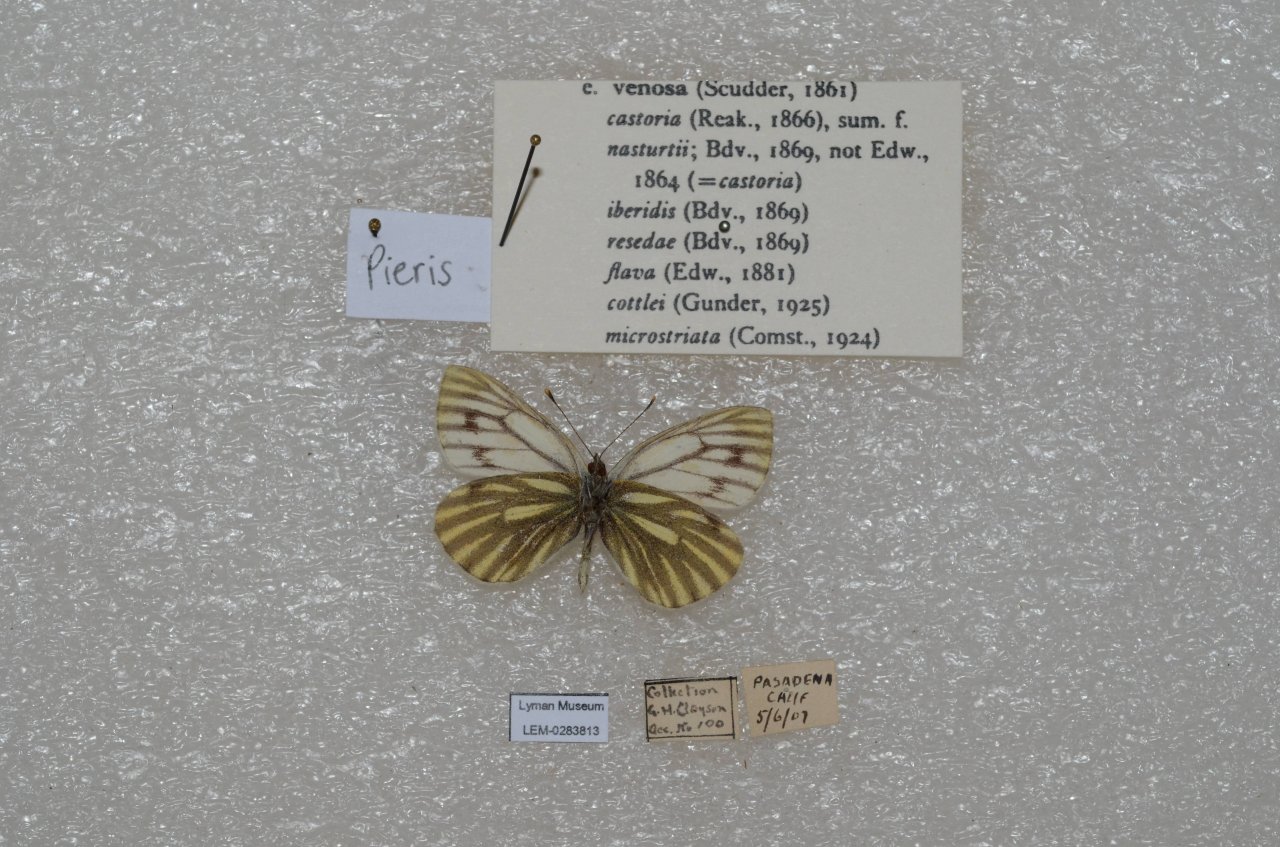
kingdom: Animalia
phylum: Arthropoda
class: Insecta
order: Lepidoptera
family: Pieridae
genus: Pieris
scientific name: Pieris
